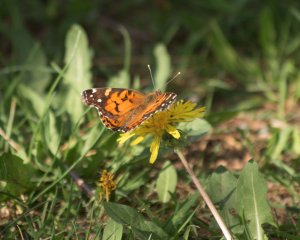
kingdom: Animalia
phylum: Arthropoda
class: Insecta
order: Lepidoptera
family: Nymphalidae
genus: Vanessa
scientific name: Vanessa virginiensis
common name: American Lady
